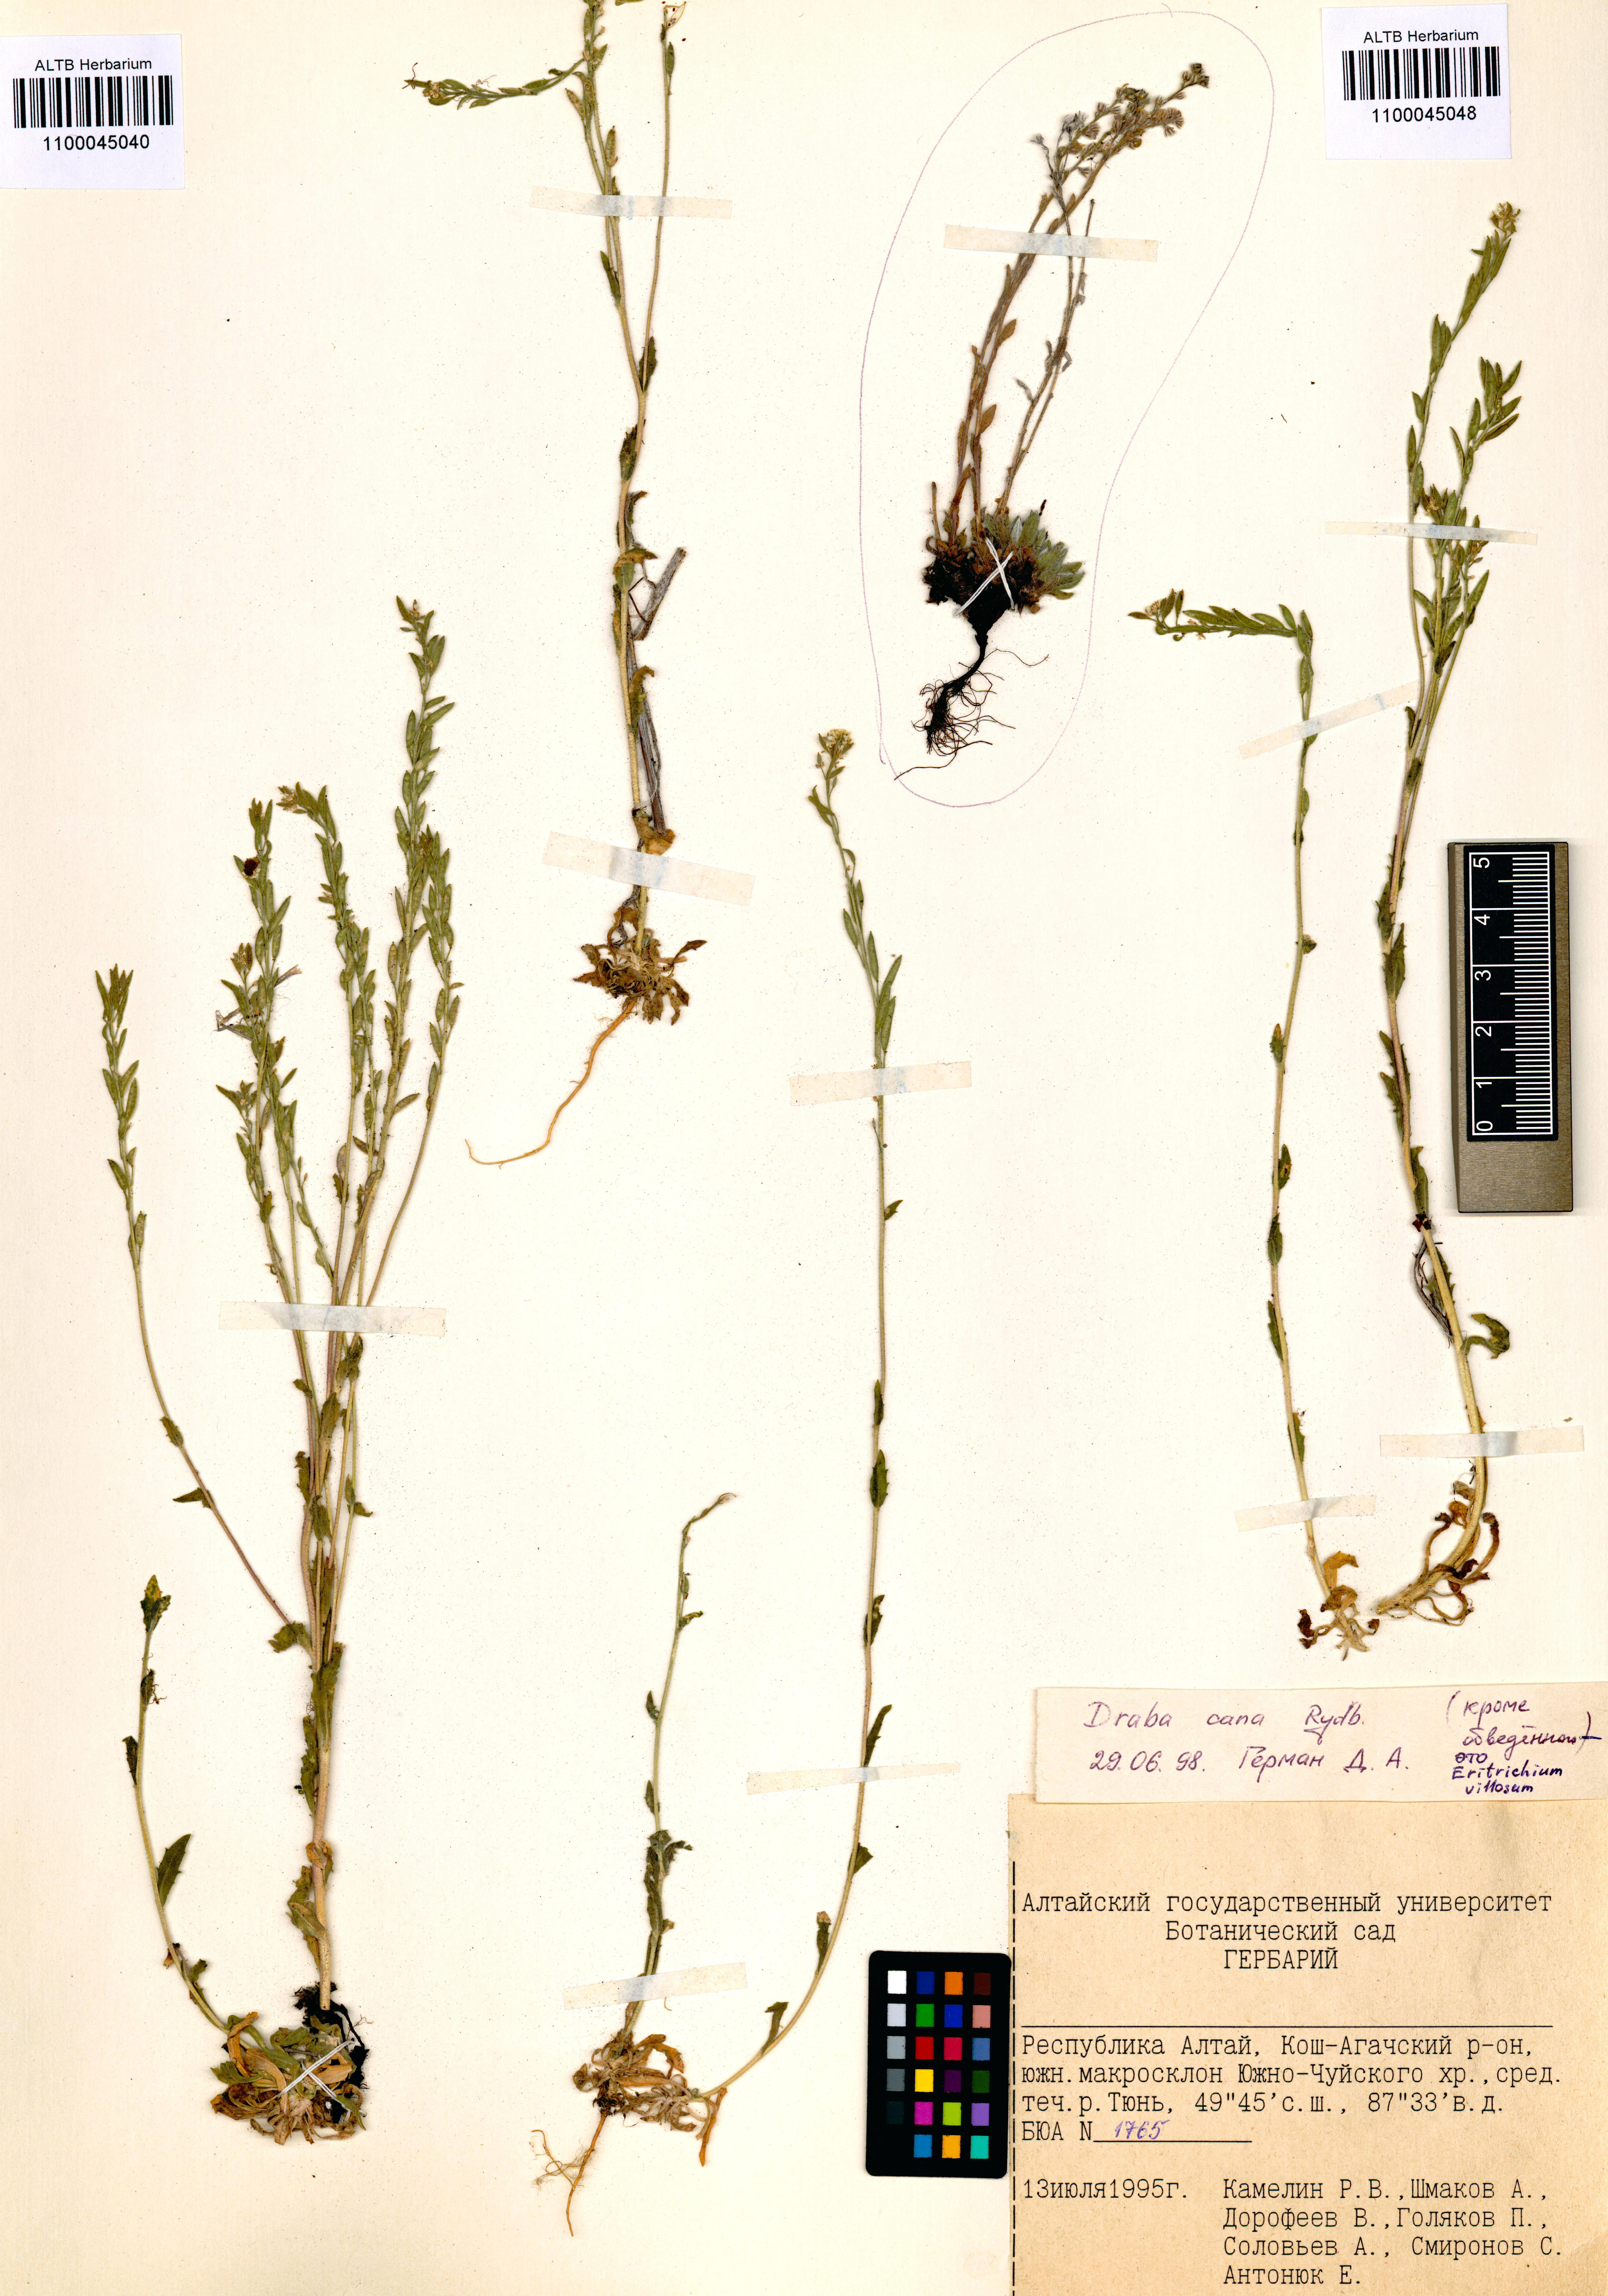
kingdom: Plantae
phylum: Tracheophyta
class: Magnoliopsida
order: Boraginales
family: Boraginaceae
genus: Eritrichium
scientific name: Eritrichium villosum
